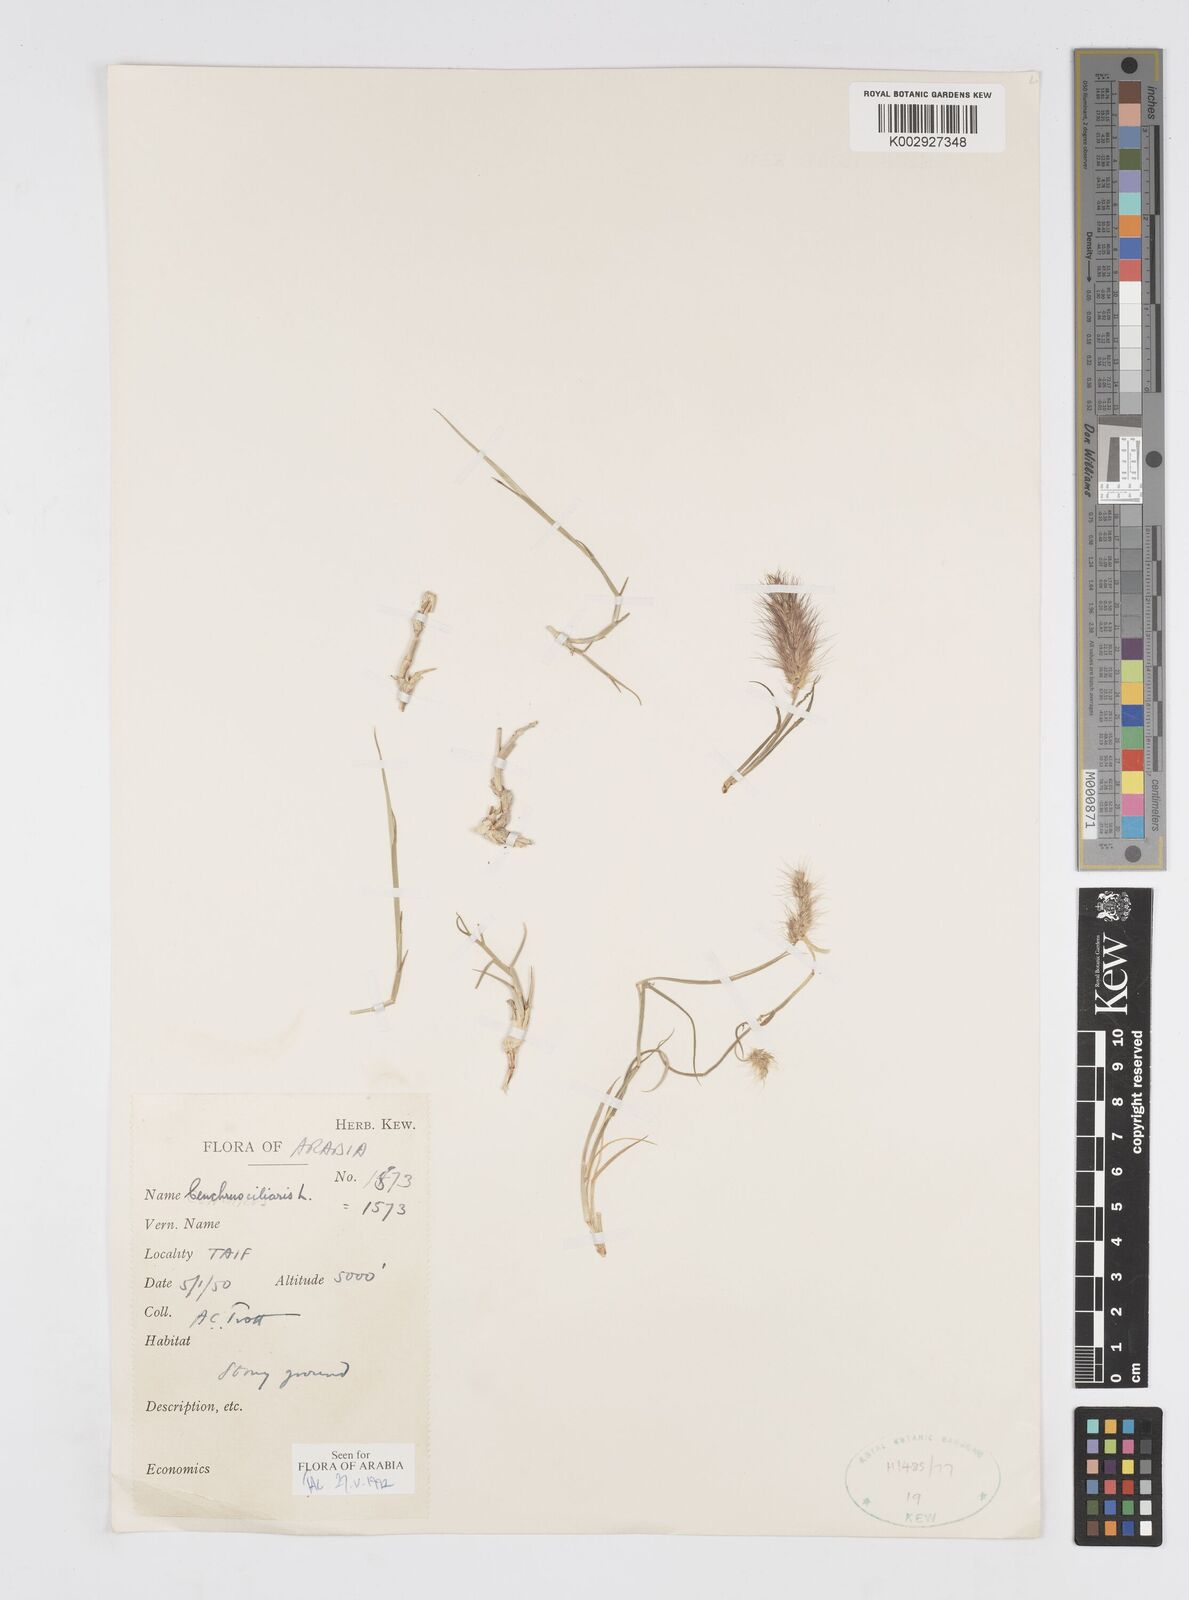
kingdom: Plantae
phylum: Tracheophyta
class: Liliopsida
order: Poales
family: Poaceae
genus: Cenchrus
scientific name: Cenchrus ciliaris
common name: Buffelgrass
